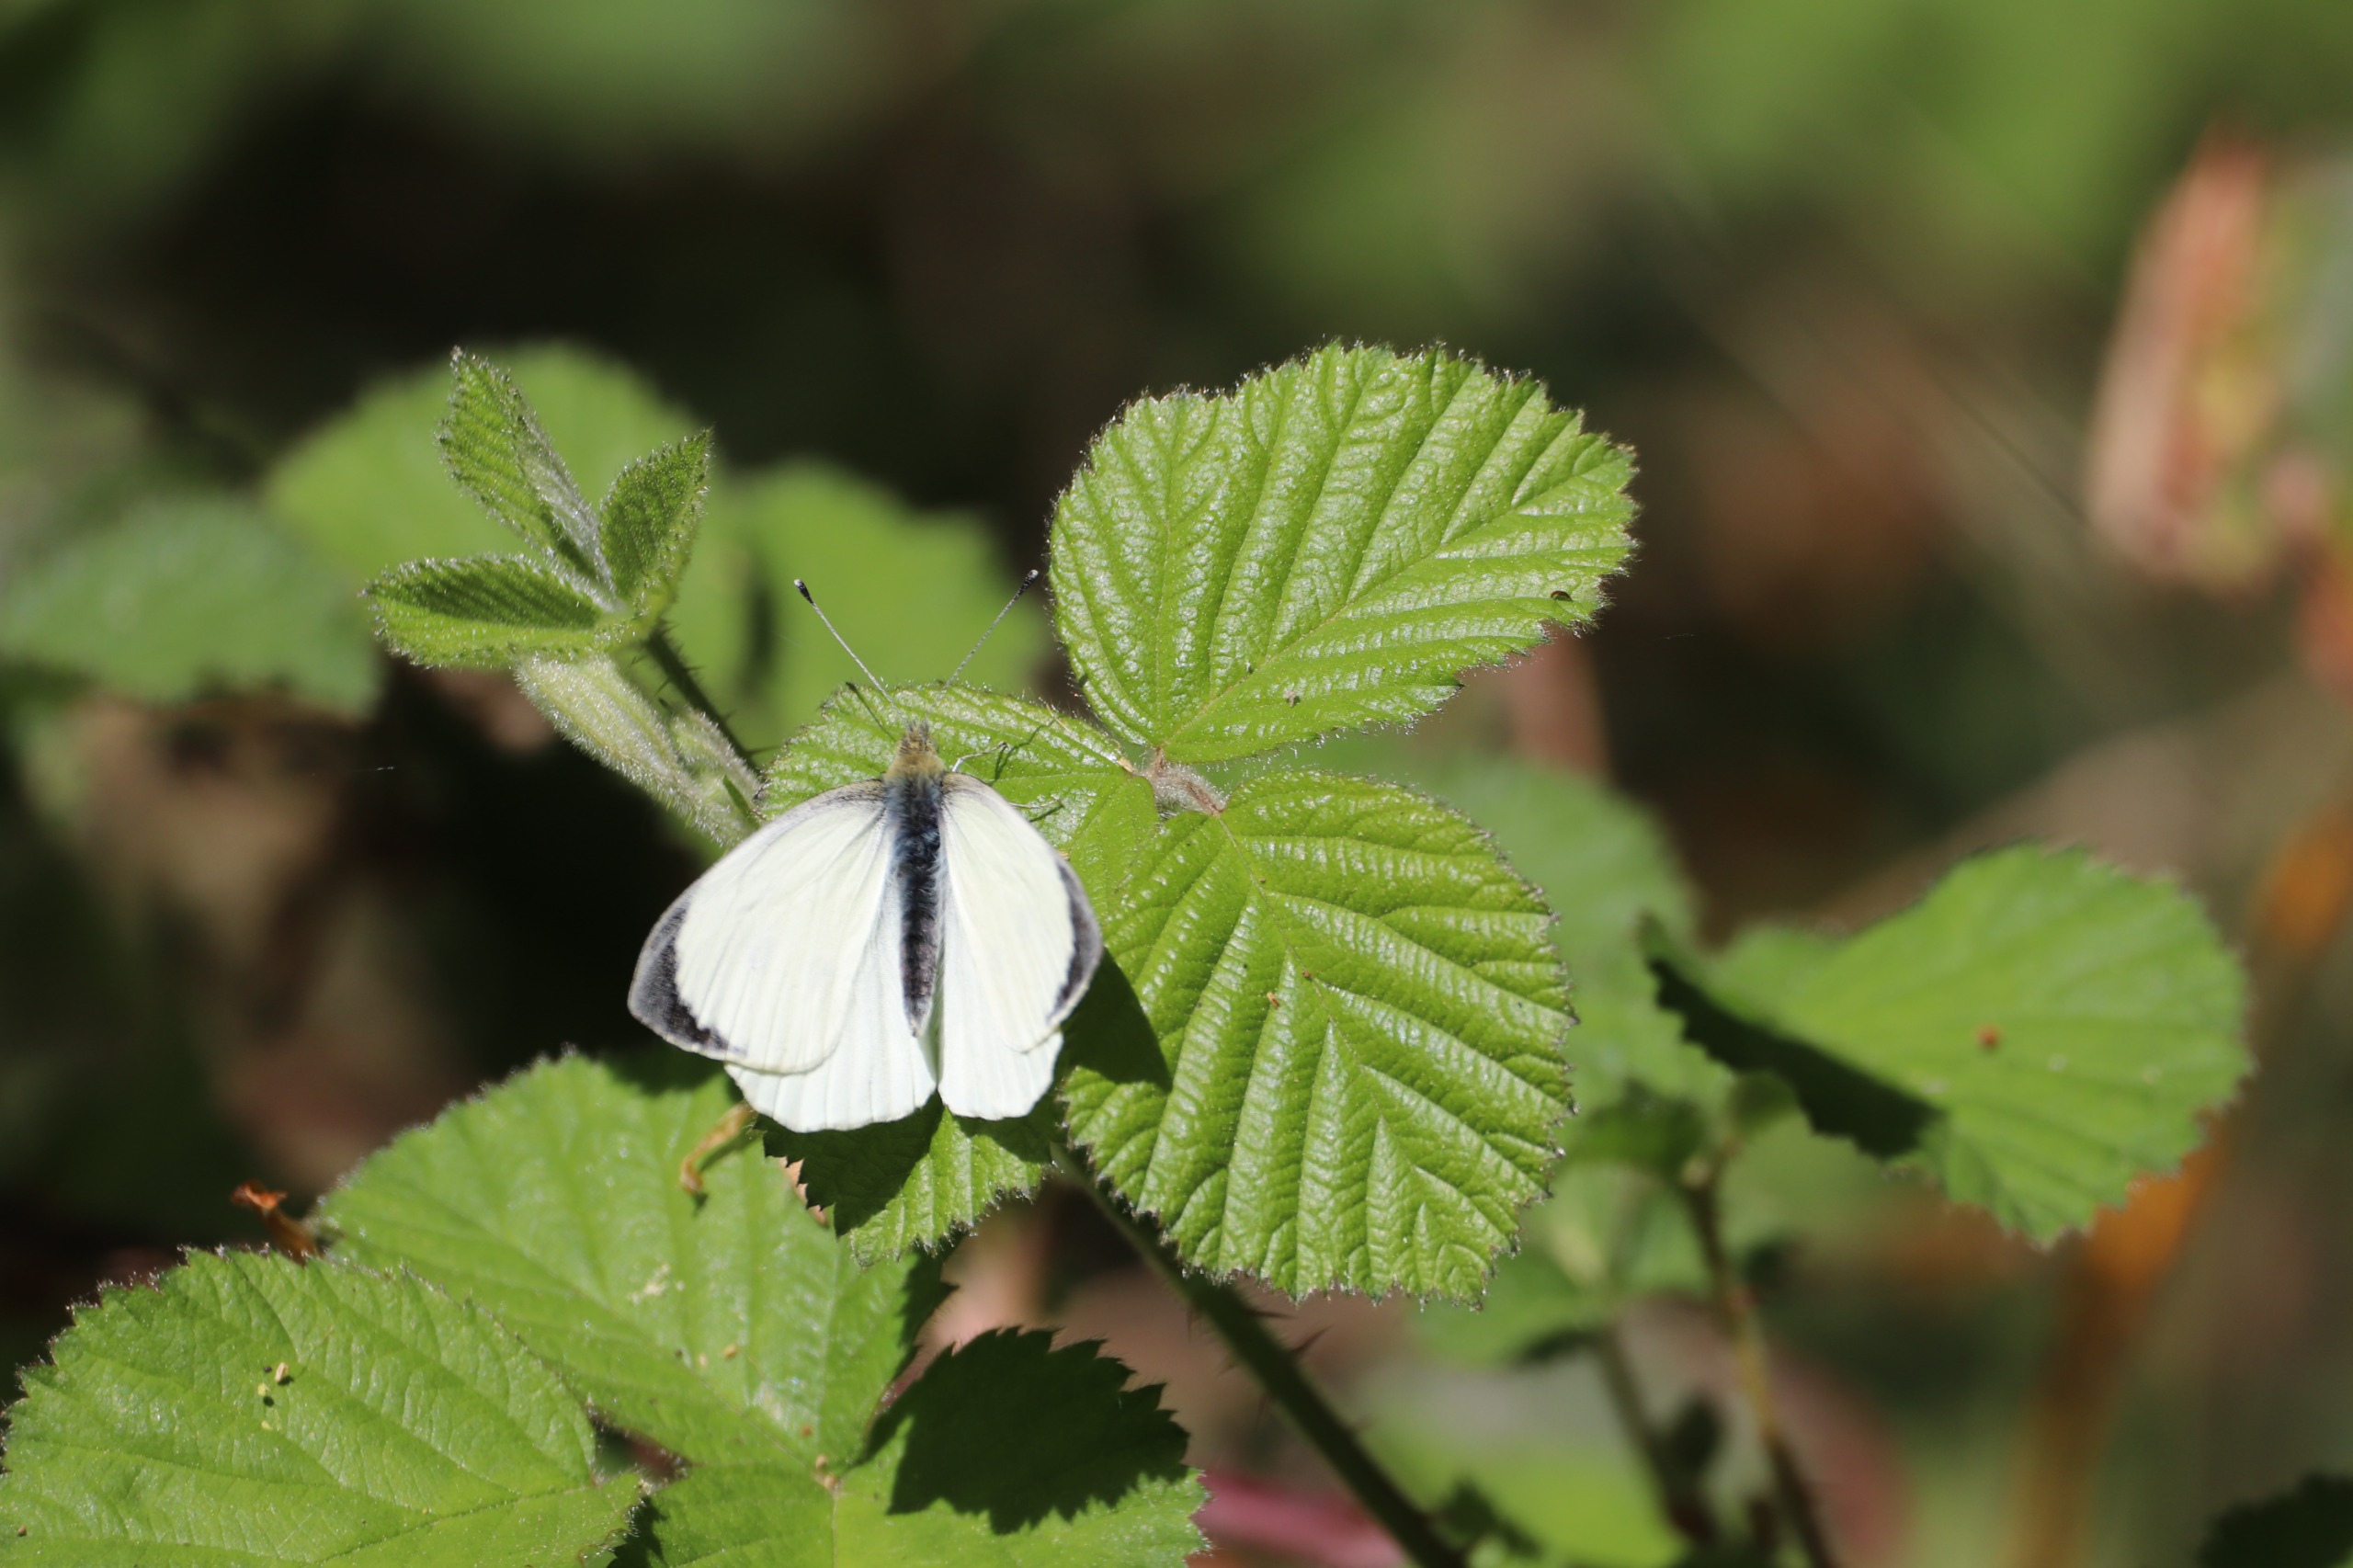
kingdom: Animalia
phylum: Arthropoda
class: Insecta
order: Lepidoptera
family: Pieridae
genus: Pieris
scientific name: Pieris brassicae
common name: Stor kålsommerfugl
